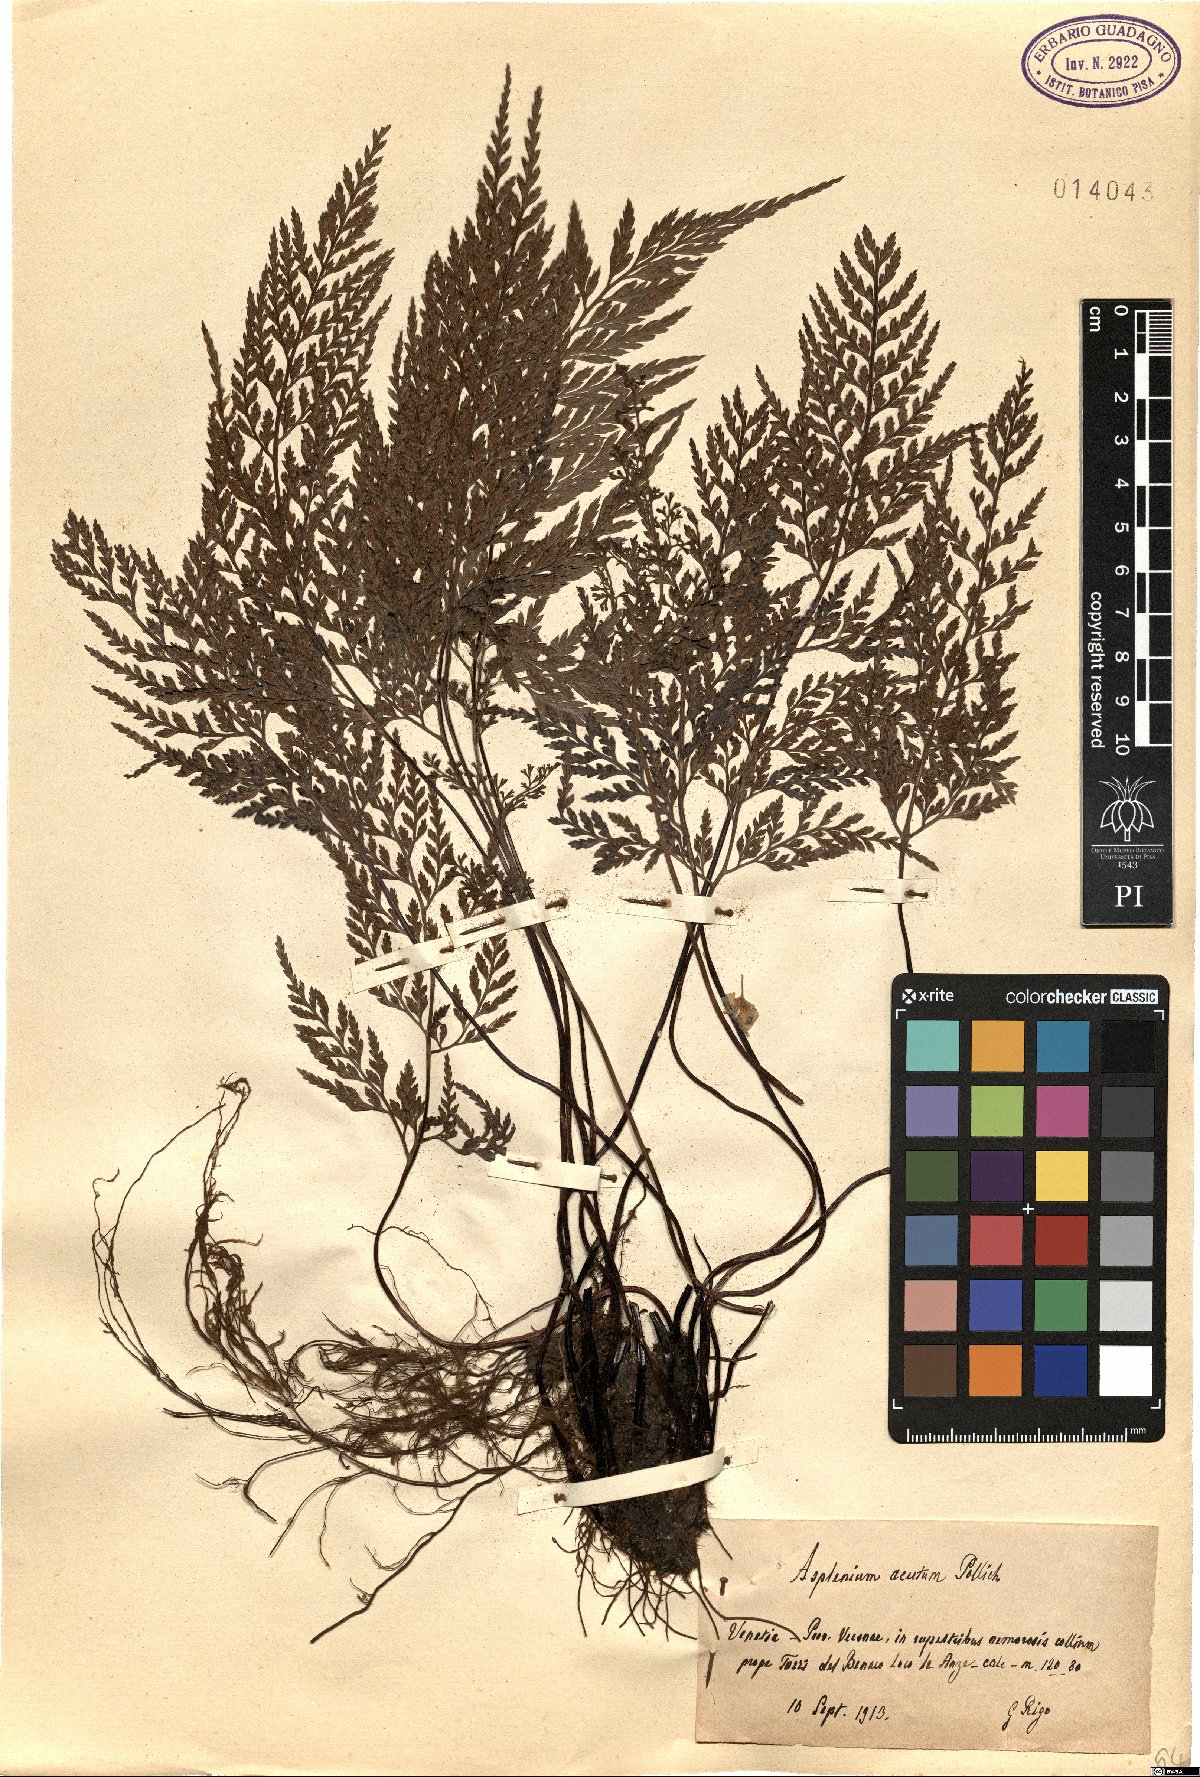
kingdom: Plantae
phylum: Tracheophyta
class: Polypodiopsida
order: Polypodiales
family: Aspleniaceae
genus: Asplenium
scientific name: Asplenium onopteris
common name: Irish spleenwort
